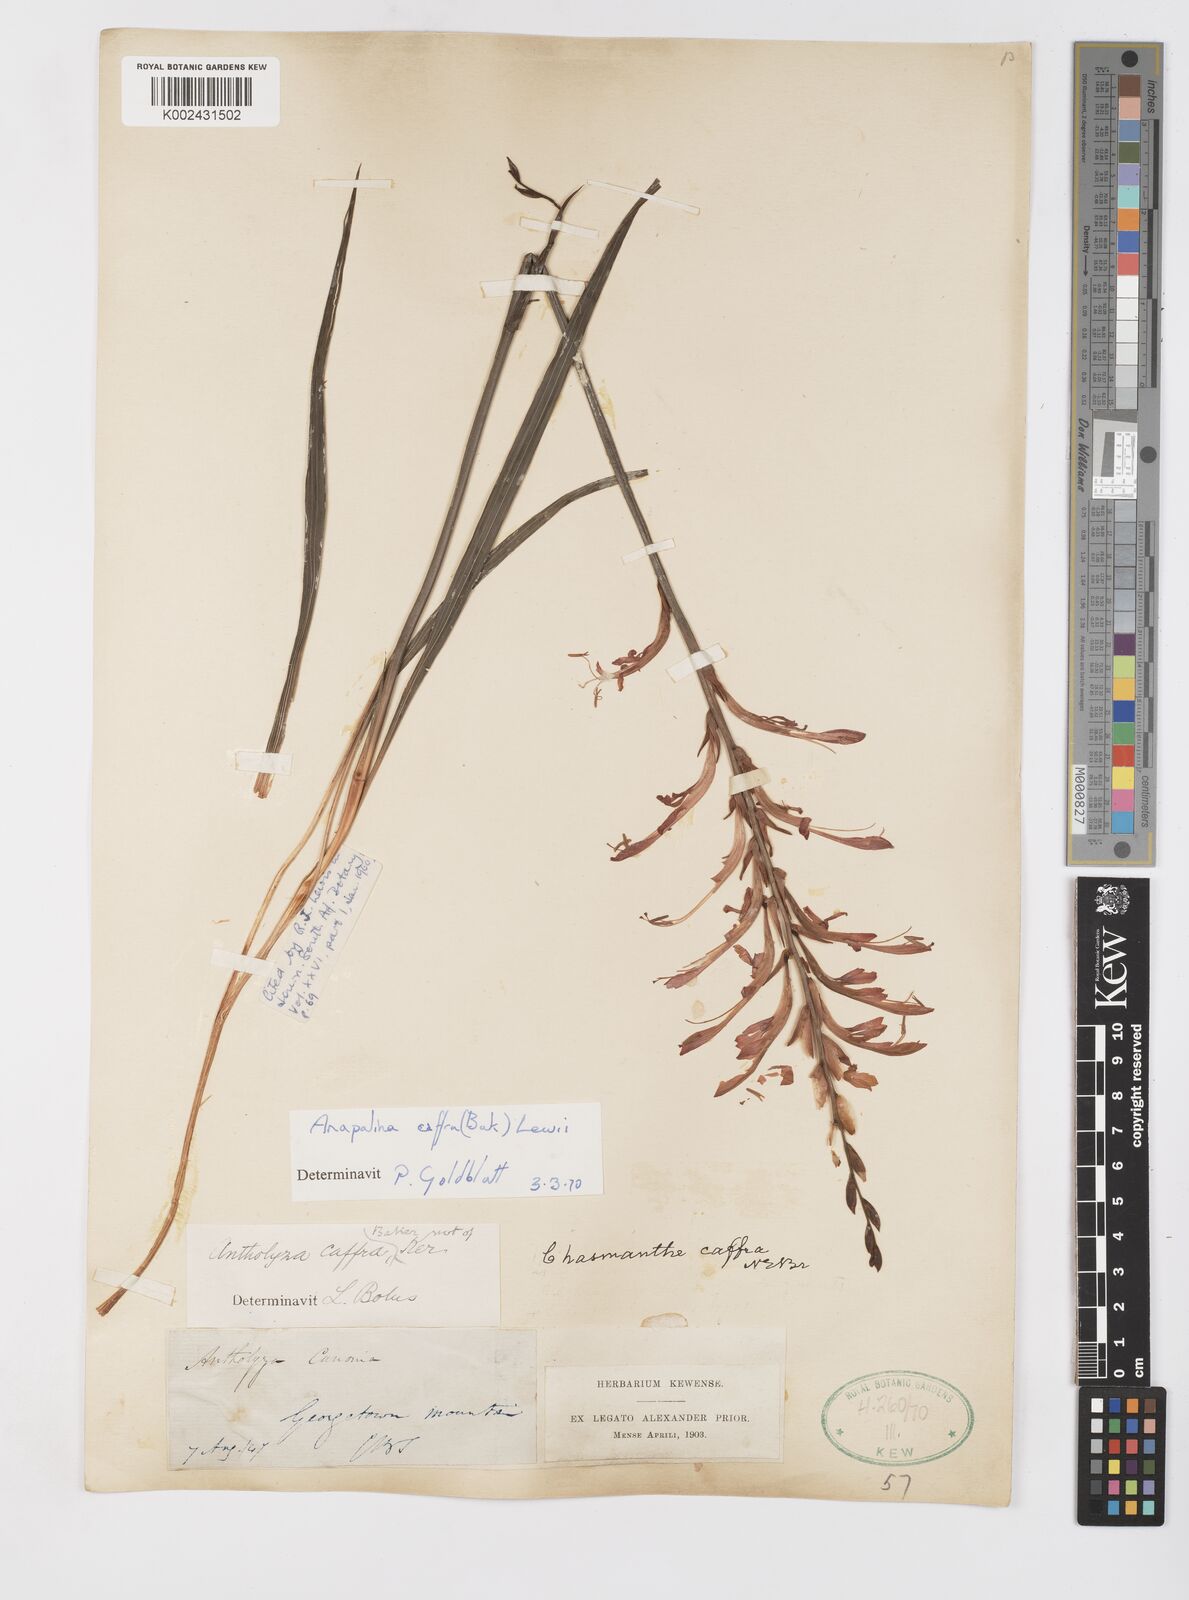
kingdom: Plantae
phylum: Tracheophyta
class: Liliopsida
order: Asparagales
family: Iridaceae
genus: Tritoniopsis
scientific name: Tritoniopsis caffra
